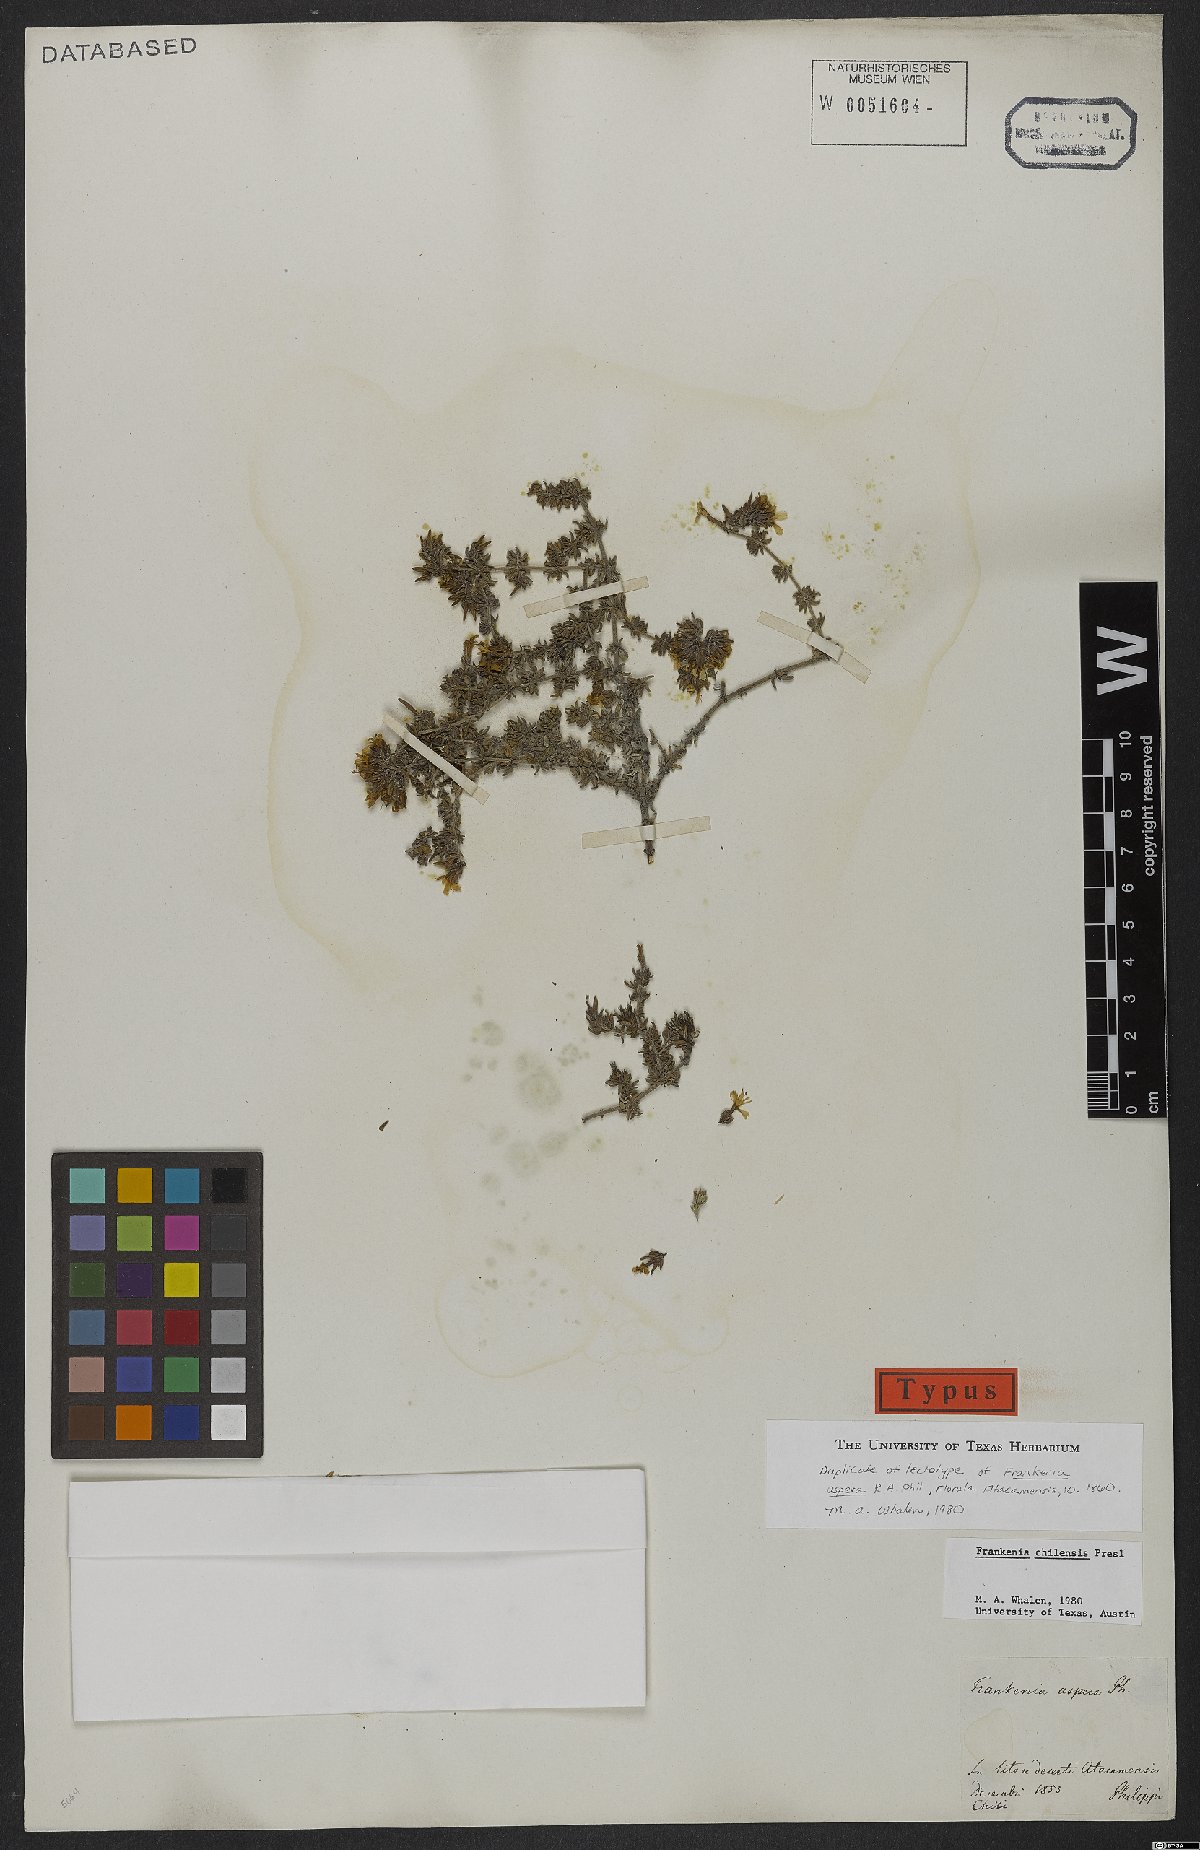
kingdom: Plantae
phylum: Tracheophyta
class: Magnoliopsida
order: Caryophyllales
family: Frankeniaceae
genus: Frankenia
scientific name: Frankenia chilensis
